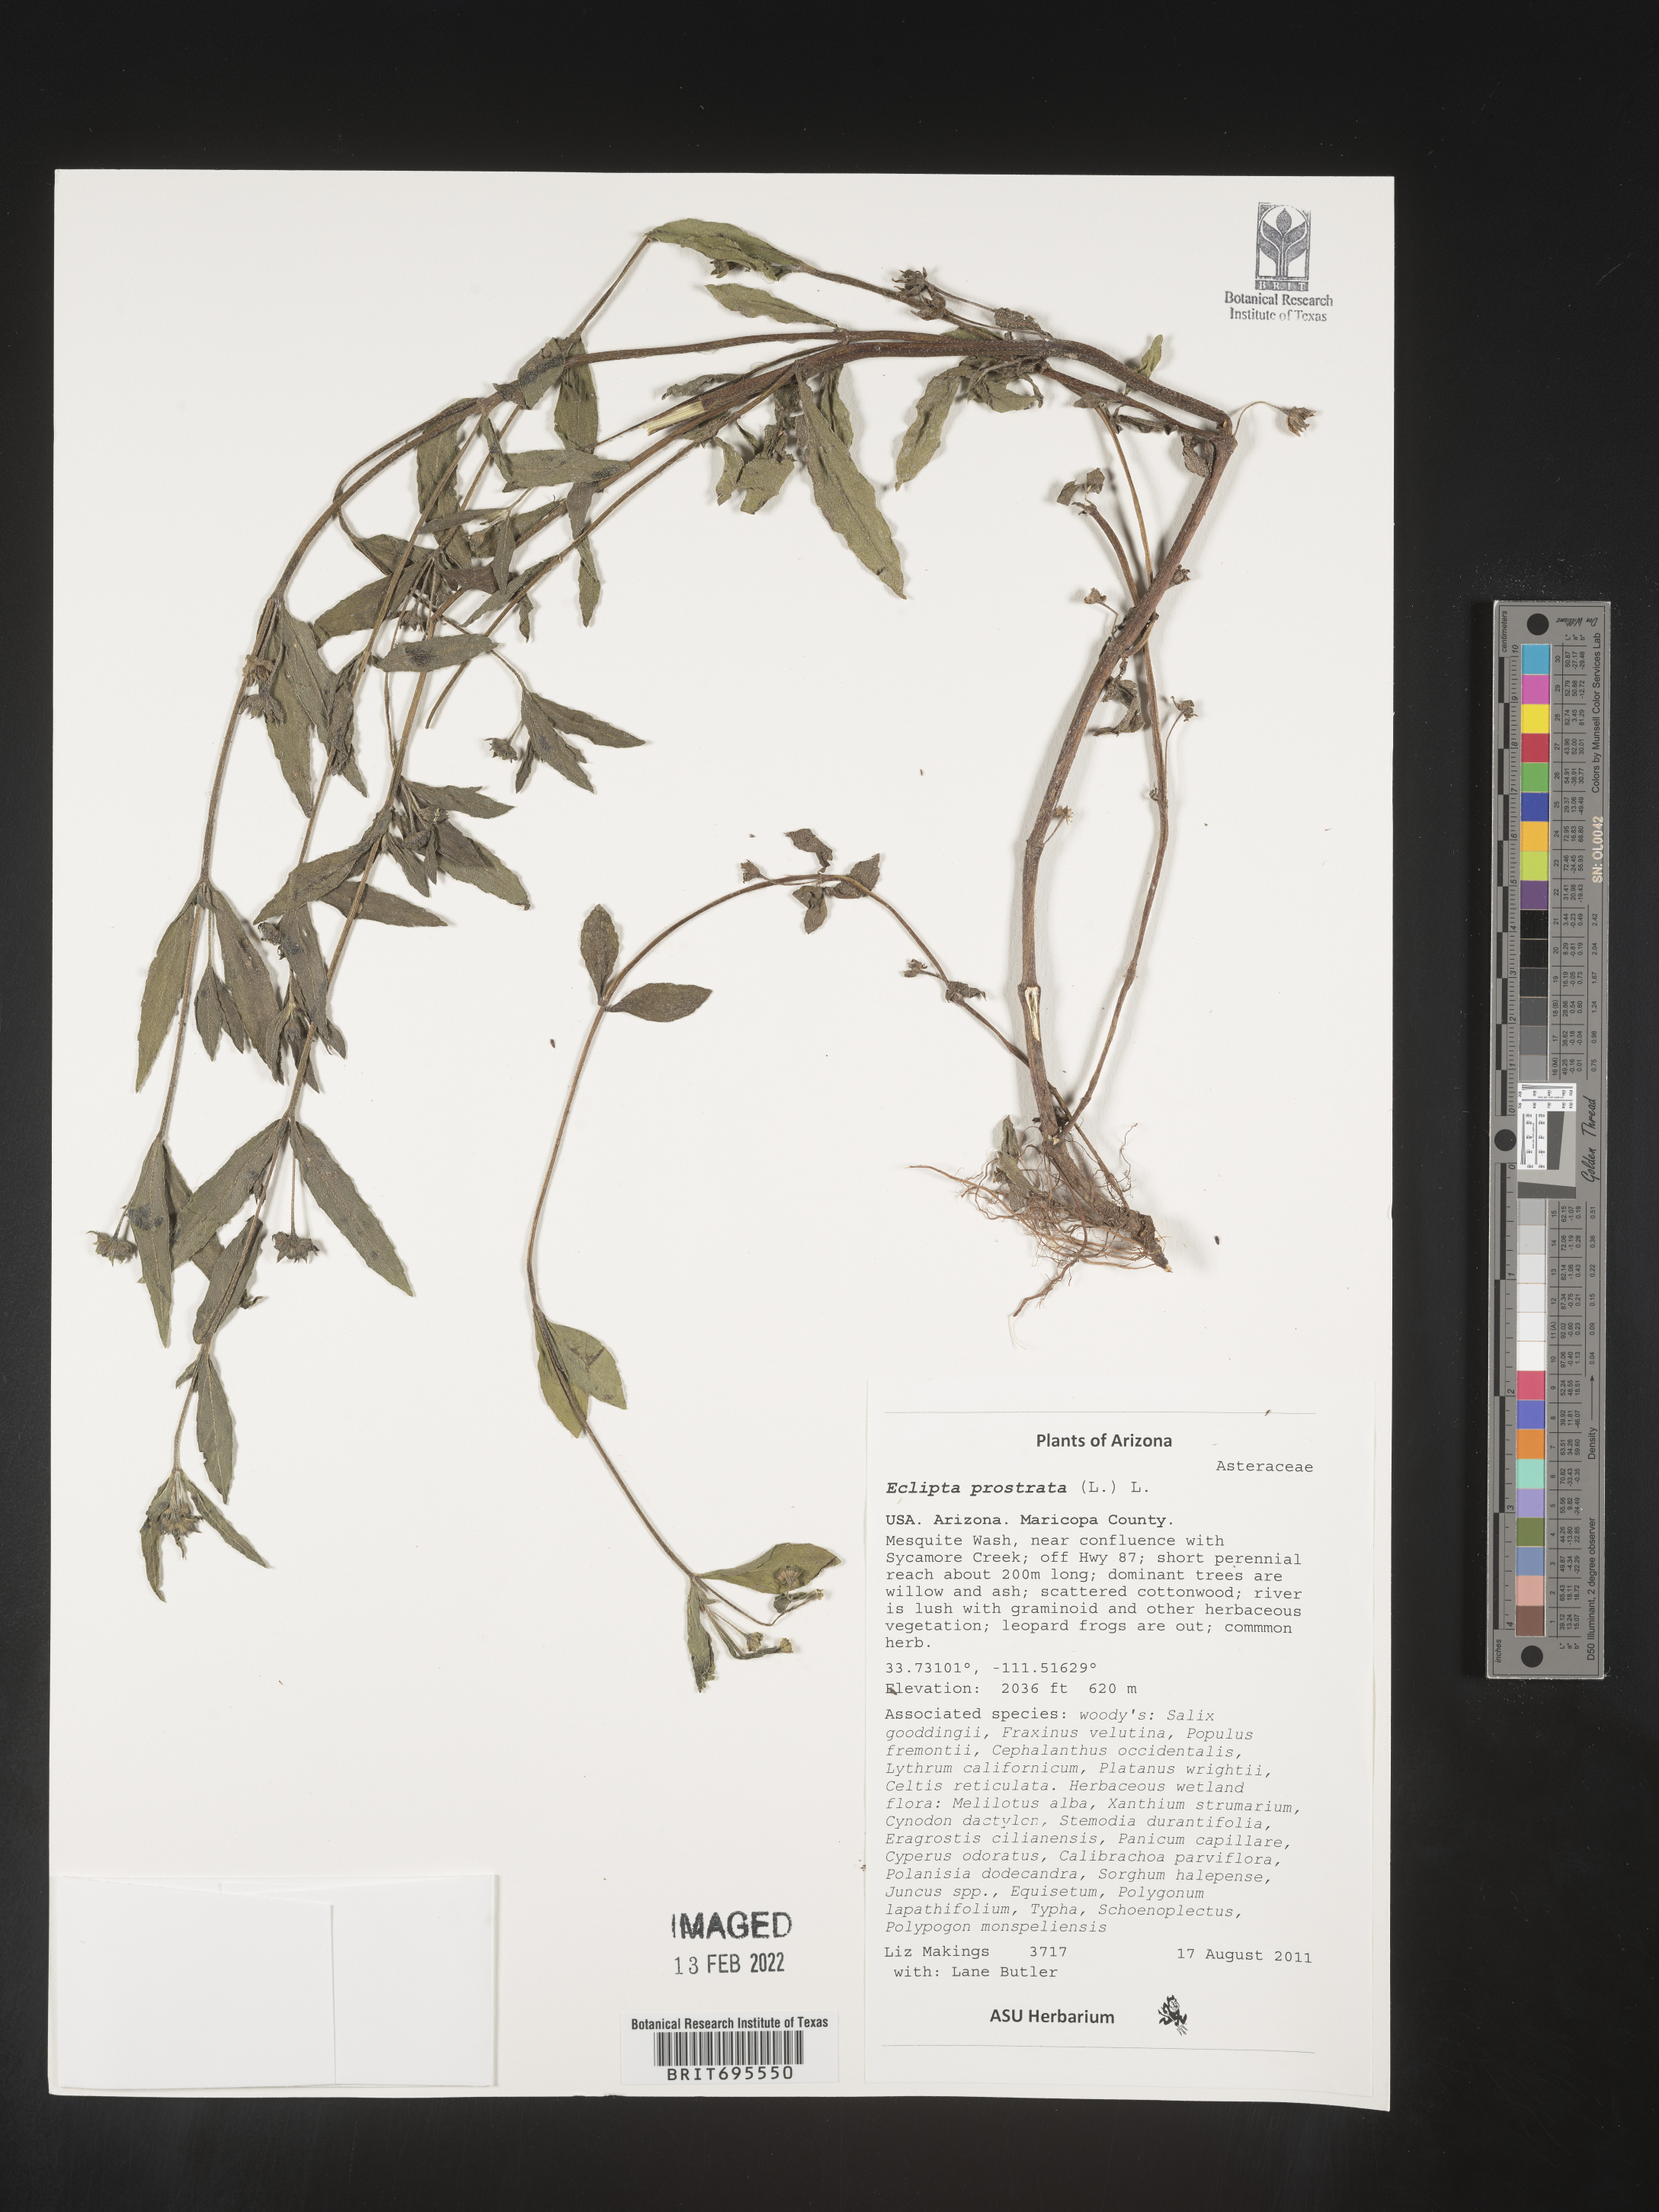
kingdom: Plantae
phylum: Tracheophyta
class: Magnoliopsida
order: Asterales
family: Asteraceae
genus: Eclipta
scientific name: Eclipta alba
